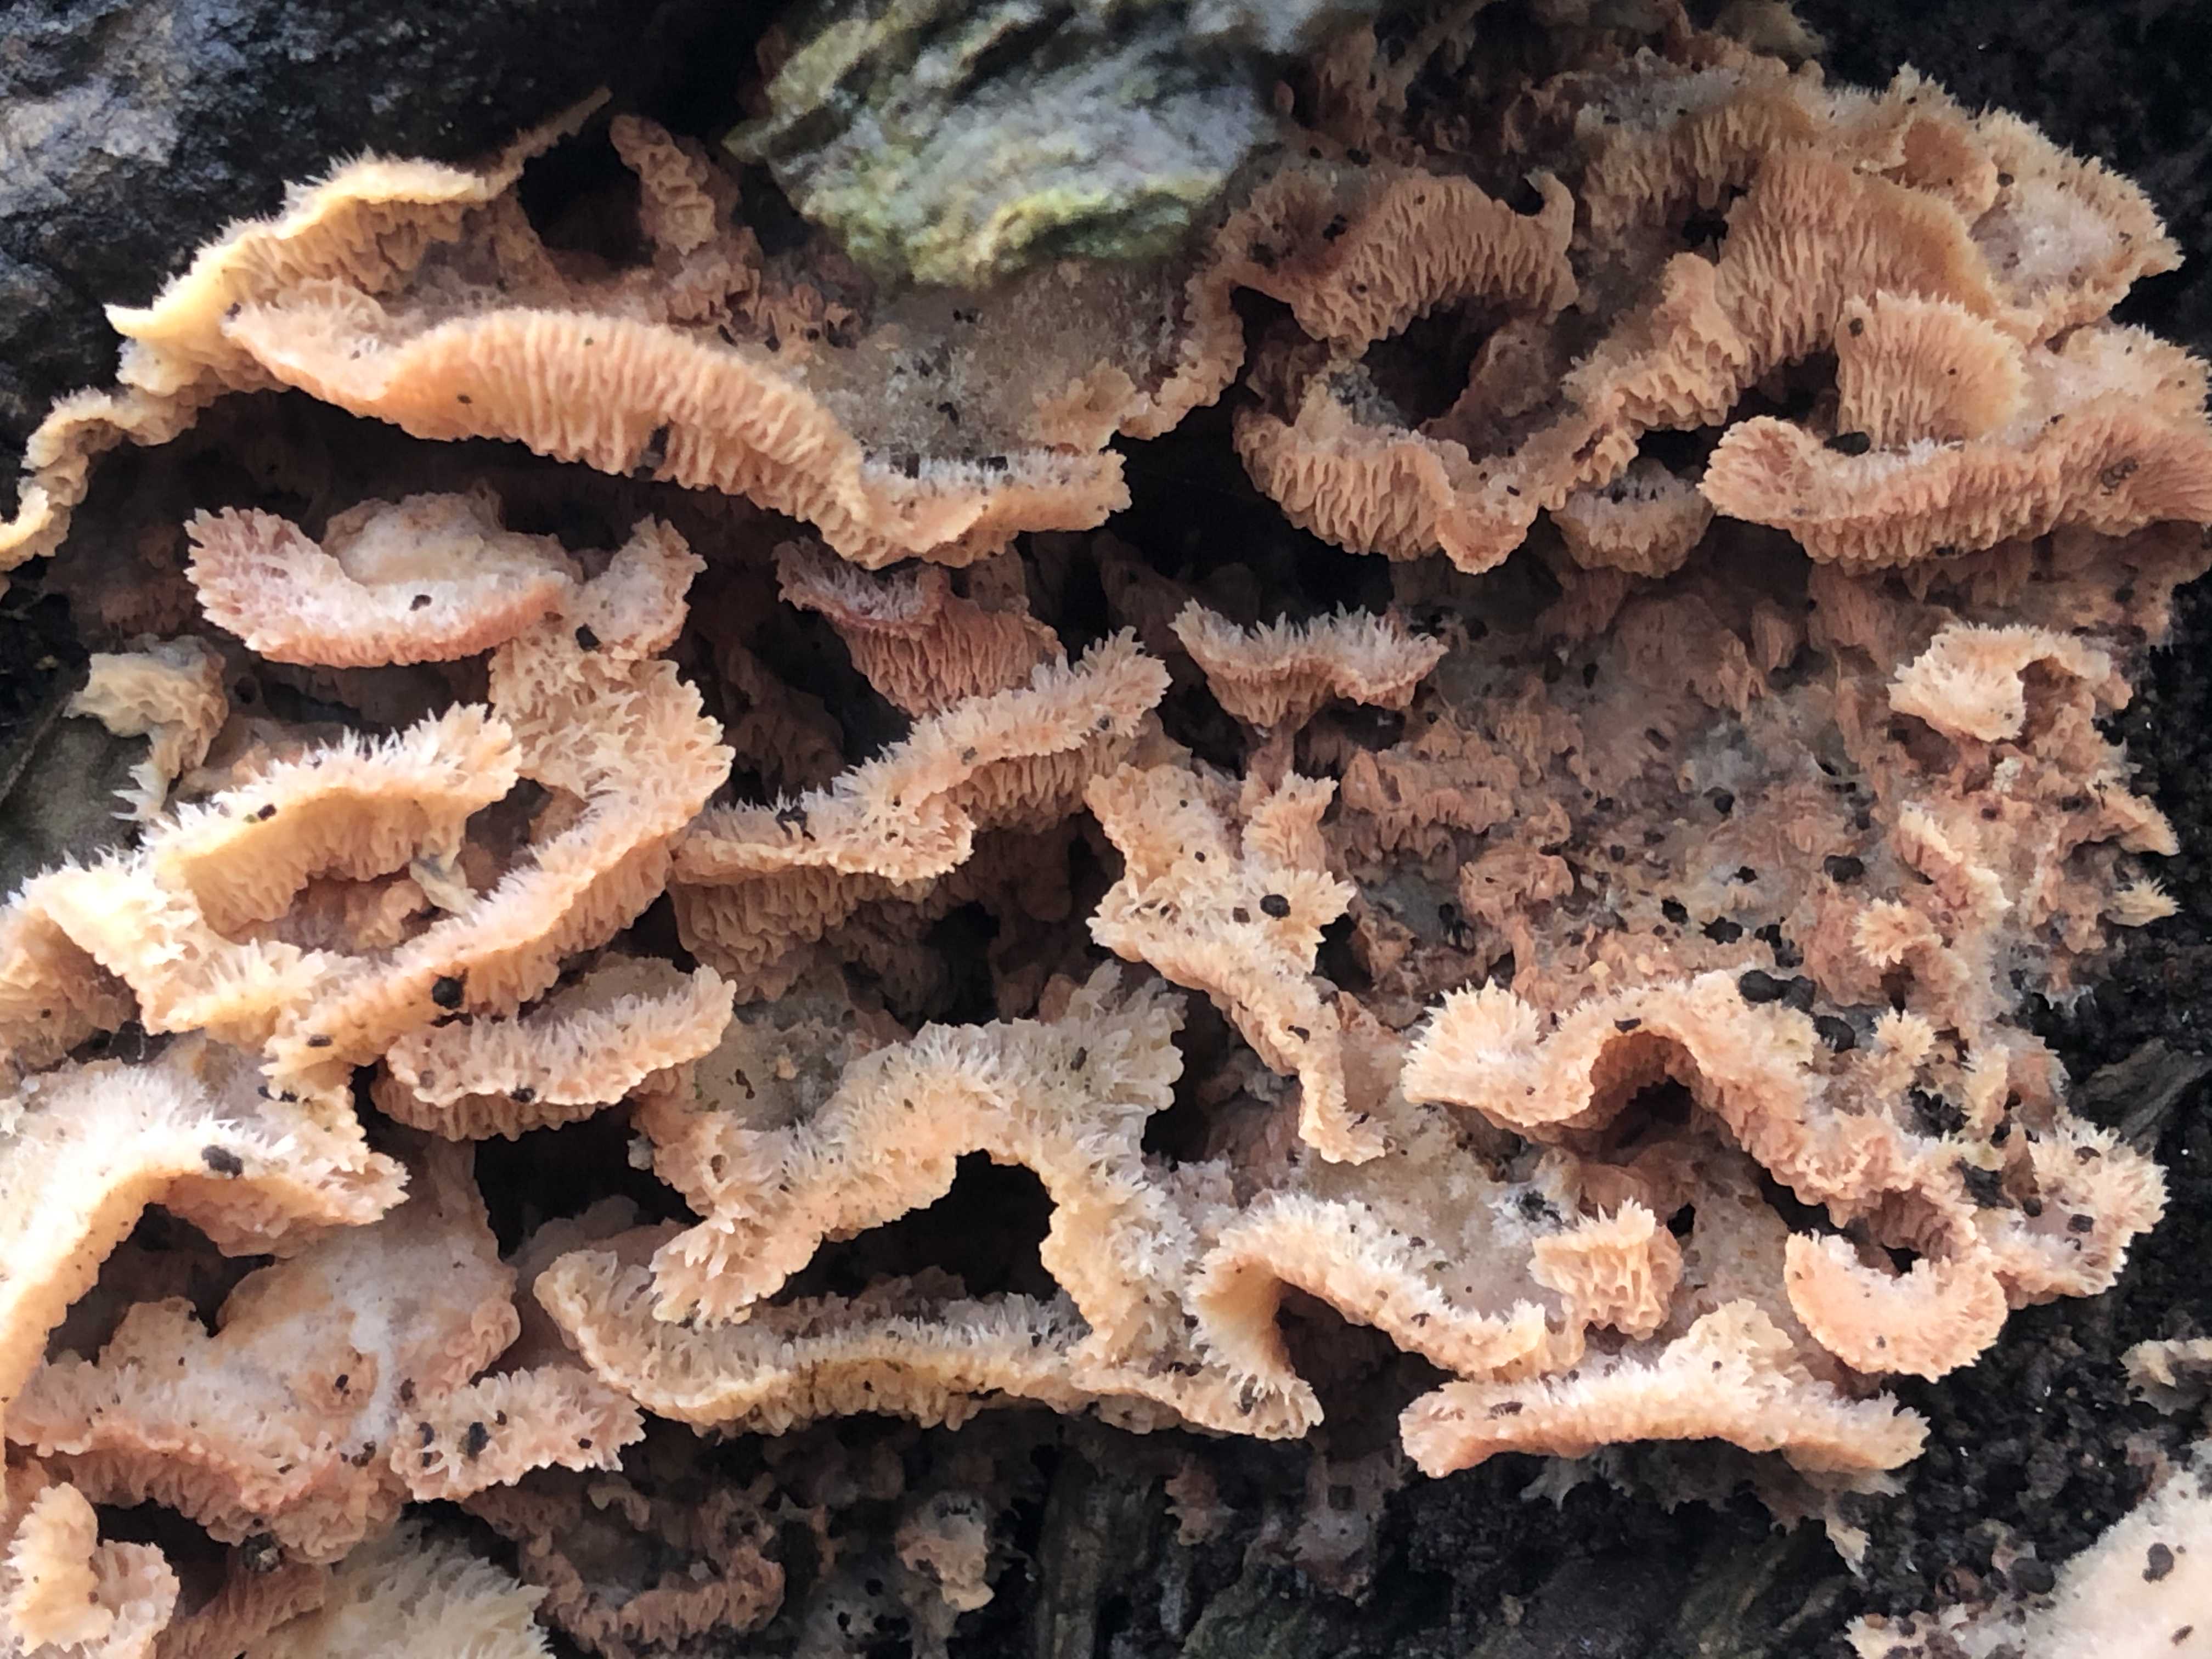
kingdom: Fungi
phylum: Basidiomycota
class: Agaricomycetes
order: Polyporales
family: Meruliaceae
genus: Phlebia
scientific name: Phlebia tremellosa
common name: bævrende åresvamp
